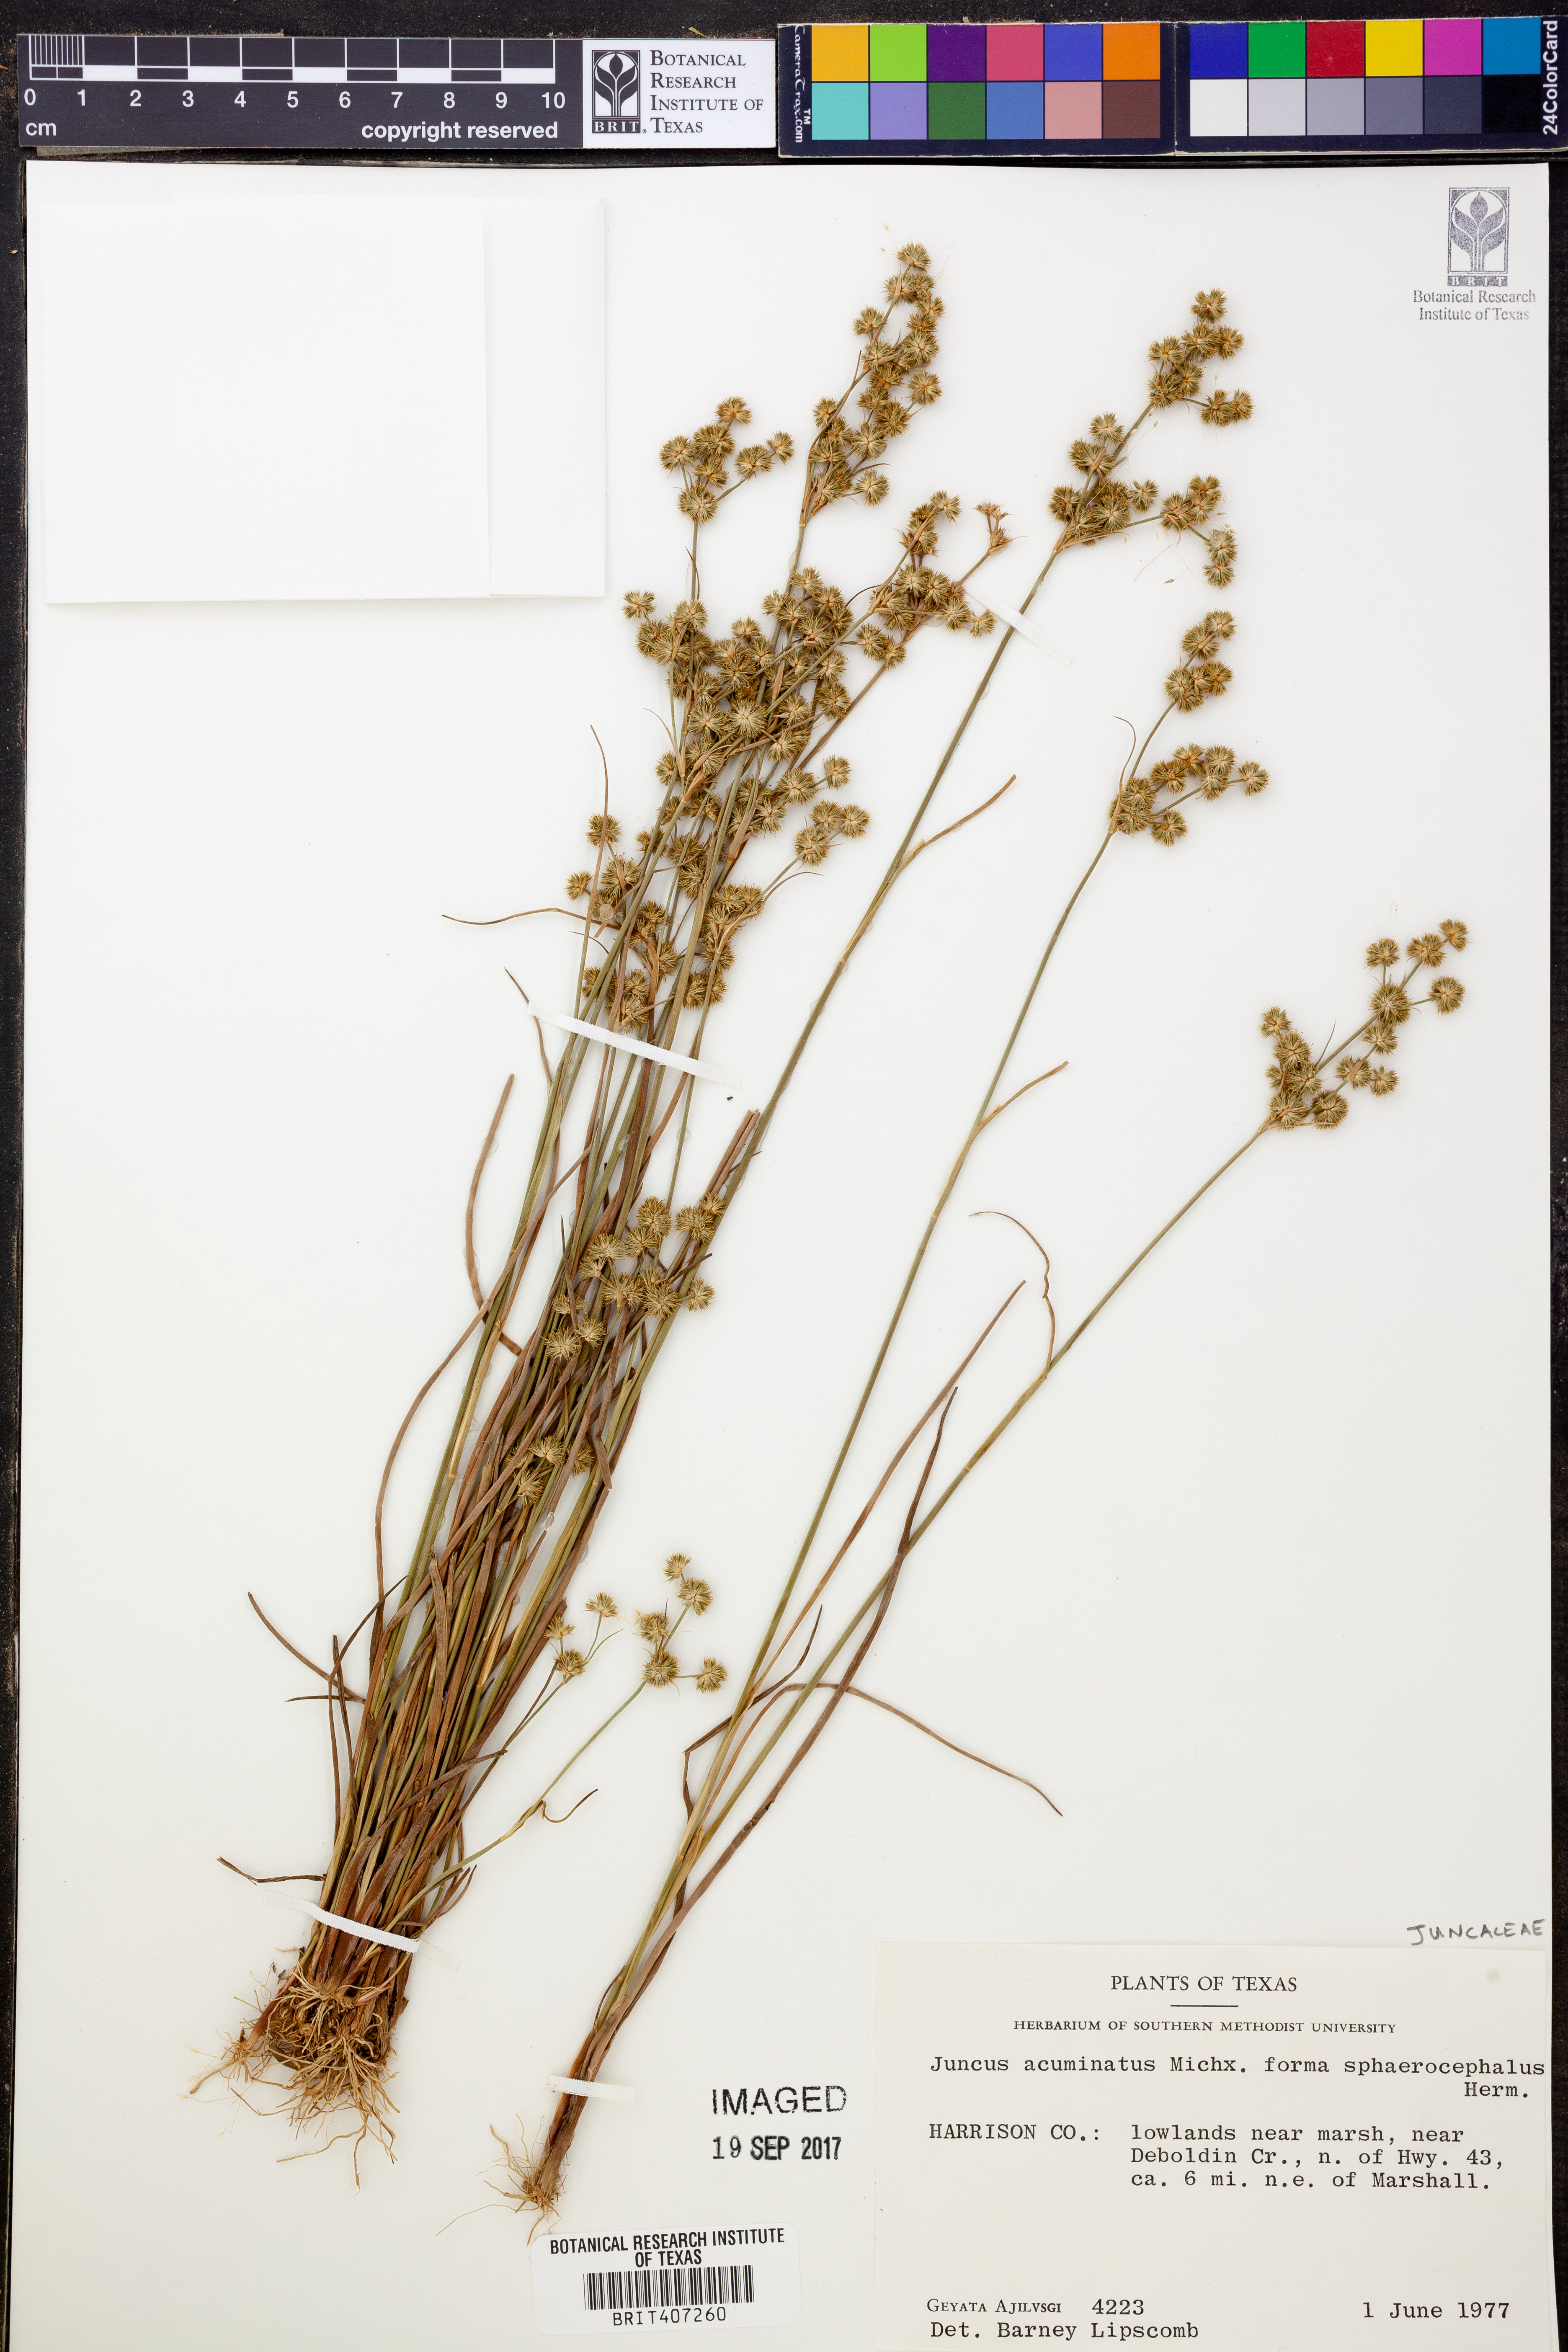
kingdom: Plantae
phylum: Tracheophyta
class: Liliopsida
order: Poales
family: Juncaceae
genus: Juncus
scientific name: Juncus acuminatus
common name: Knotty-leaved rush
